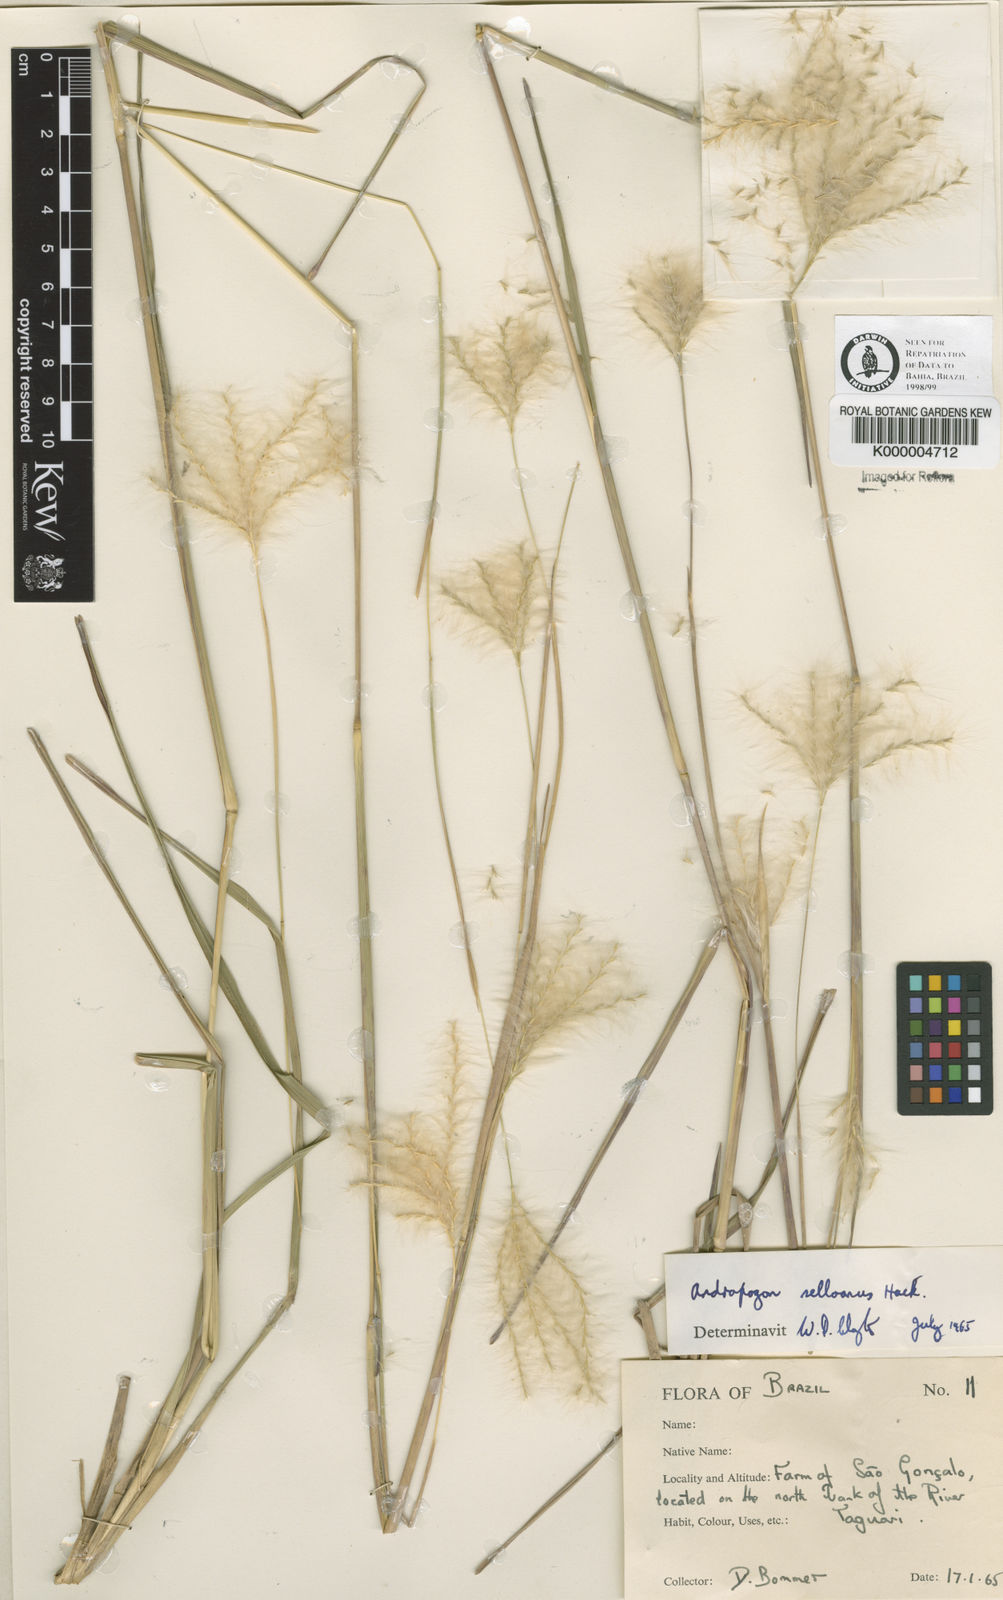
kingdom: Plantae
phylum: Tracheophyta
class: Liliopsida
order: Poales
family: Poaceae
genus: Andropogon
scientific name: Andropogon selloanus
